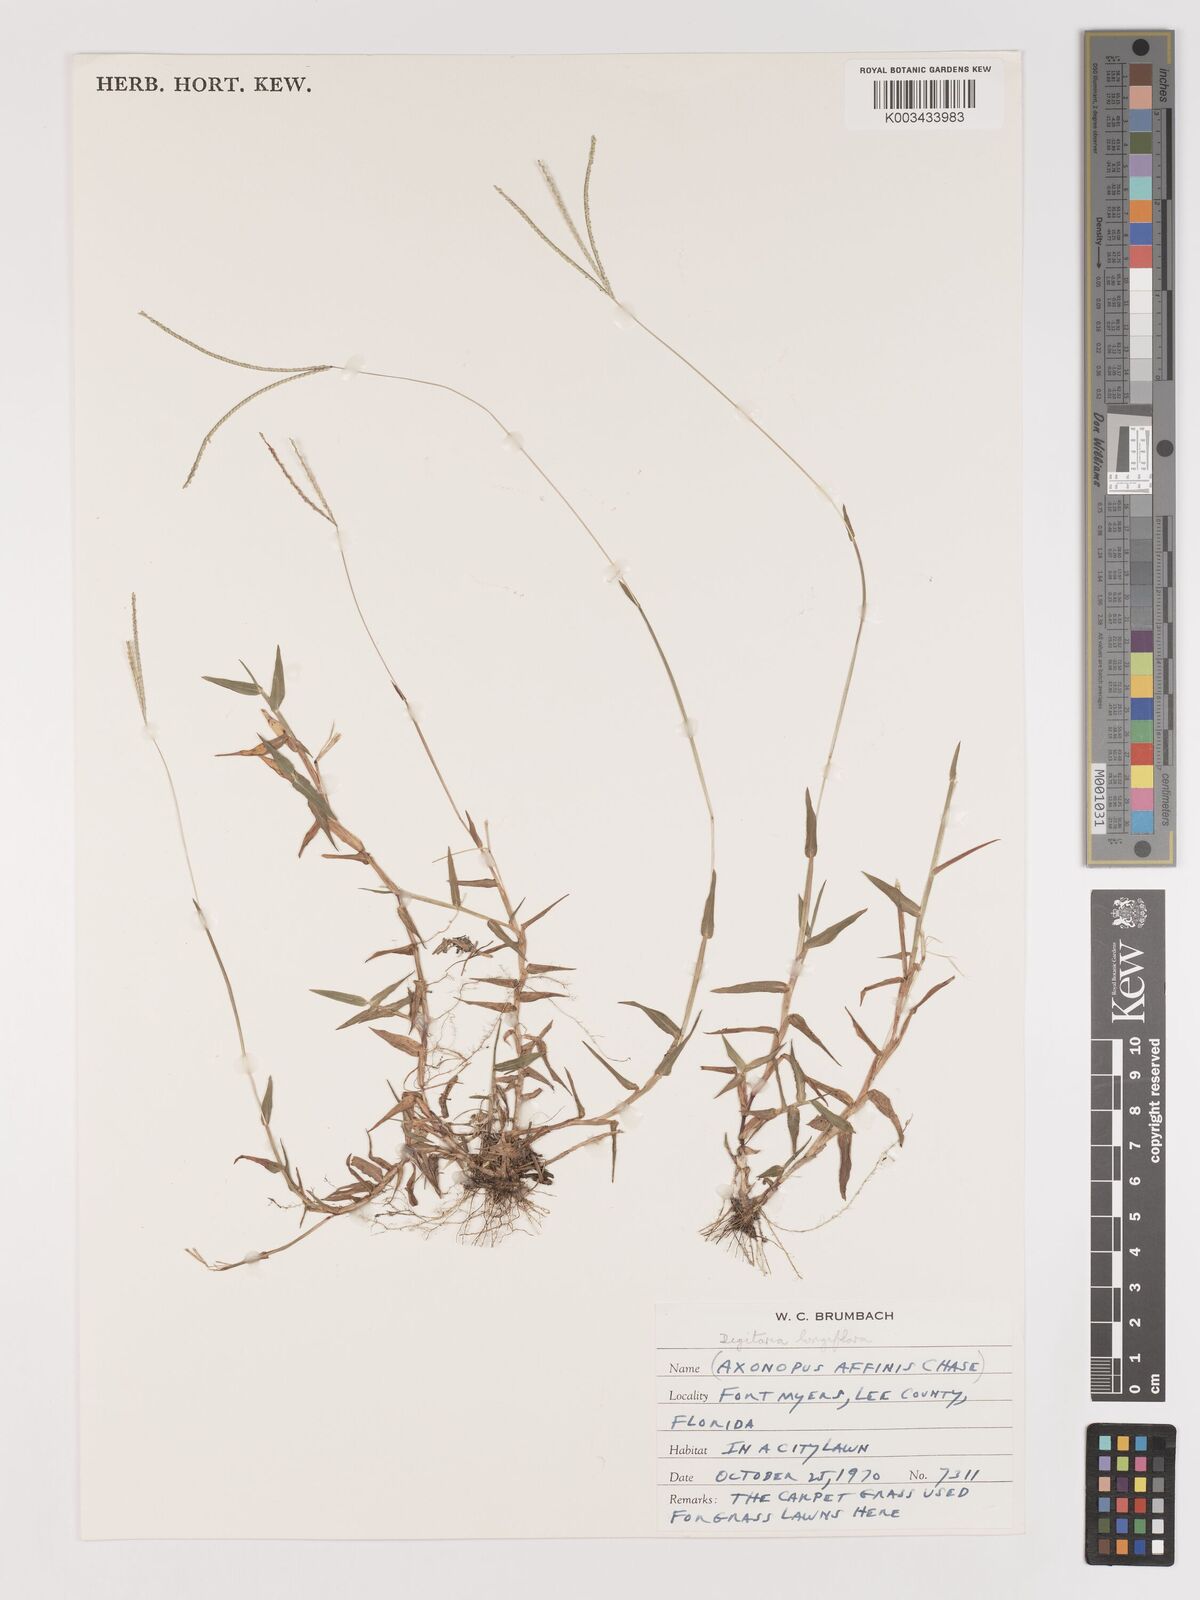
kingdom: Plantae
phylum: Tracheophyta
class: Liliopsida
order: Poales
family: Poaceae
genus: Digitaria
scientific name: Digitaria longiflora
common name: Wire crabgrass
